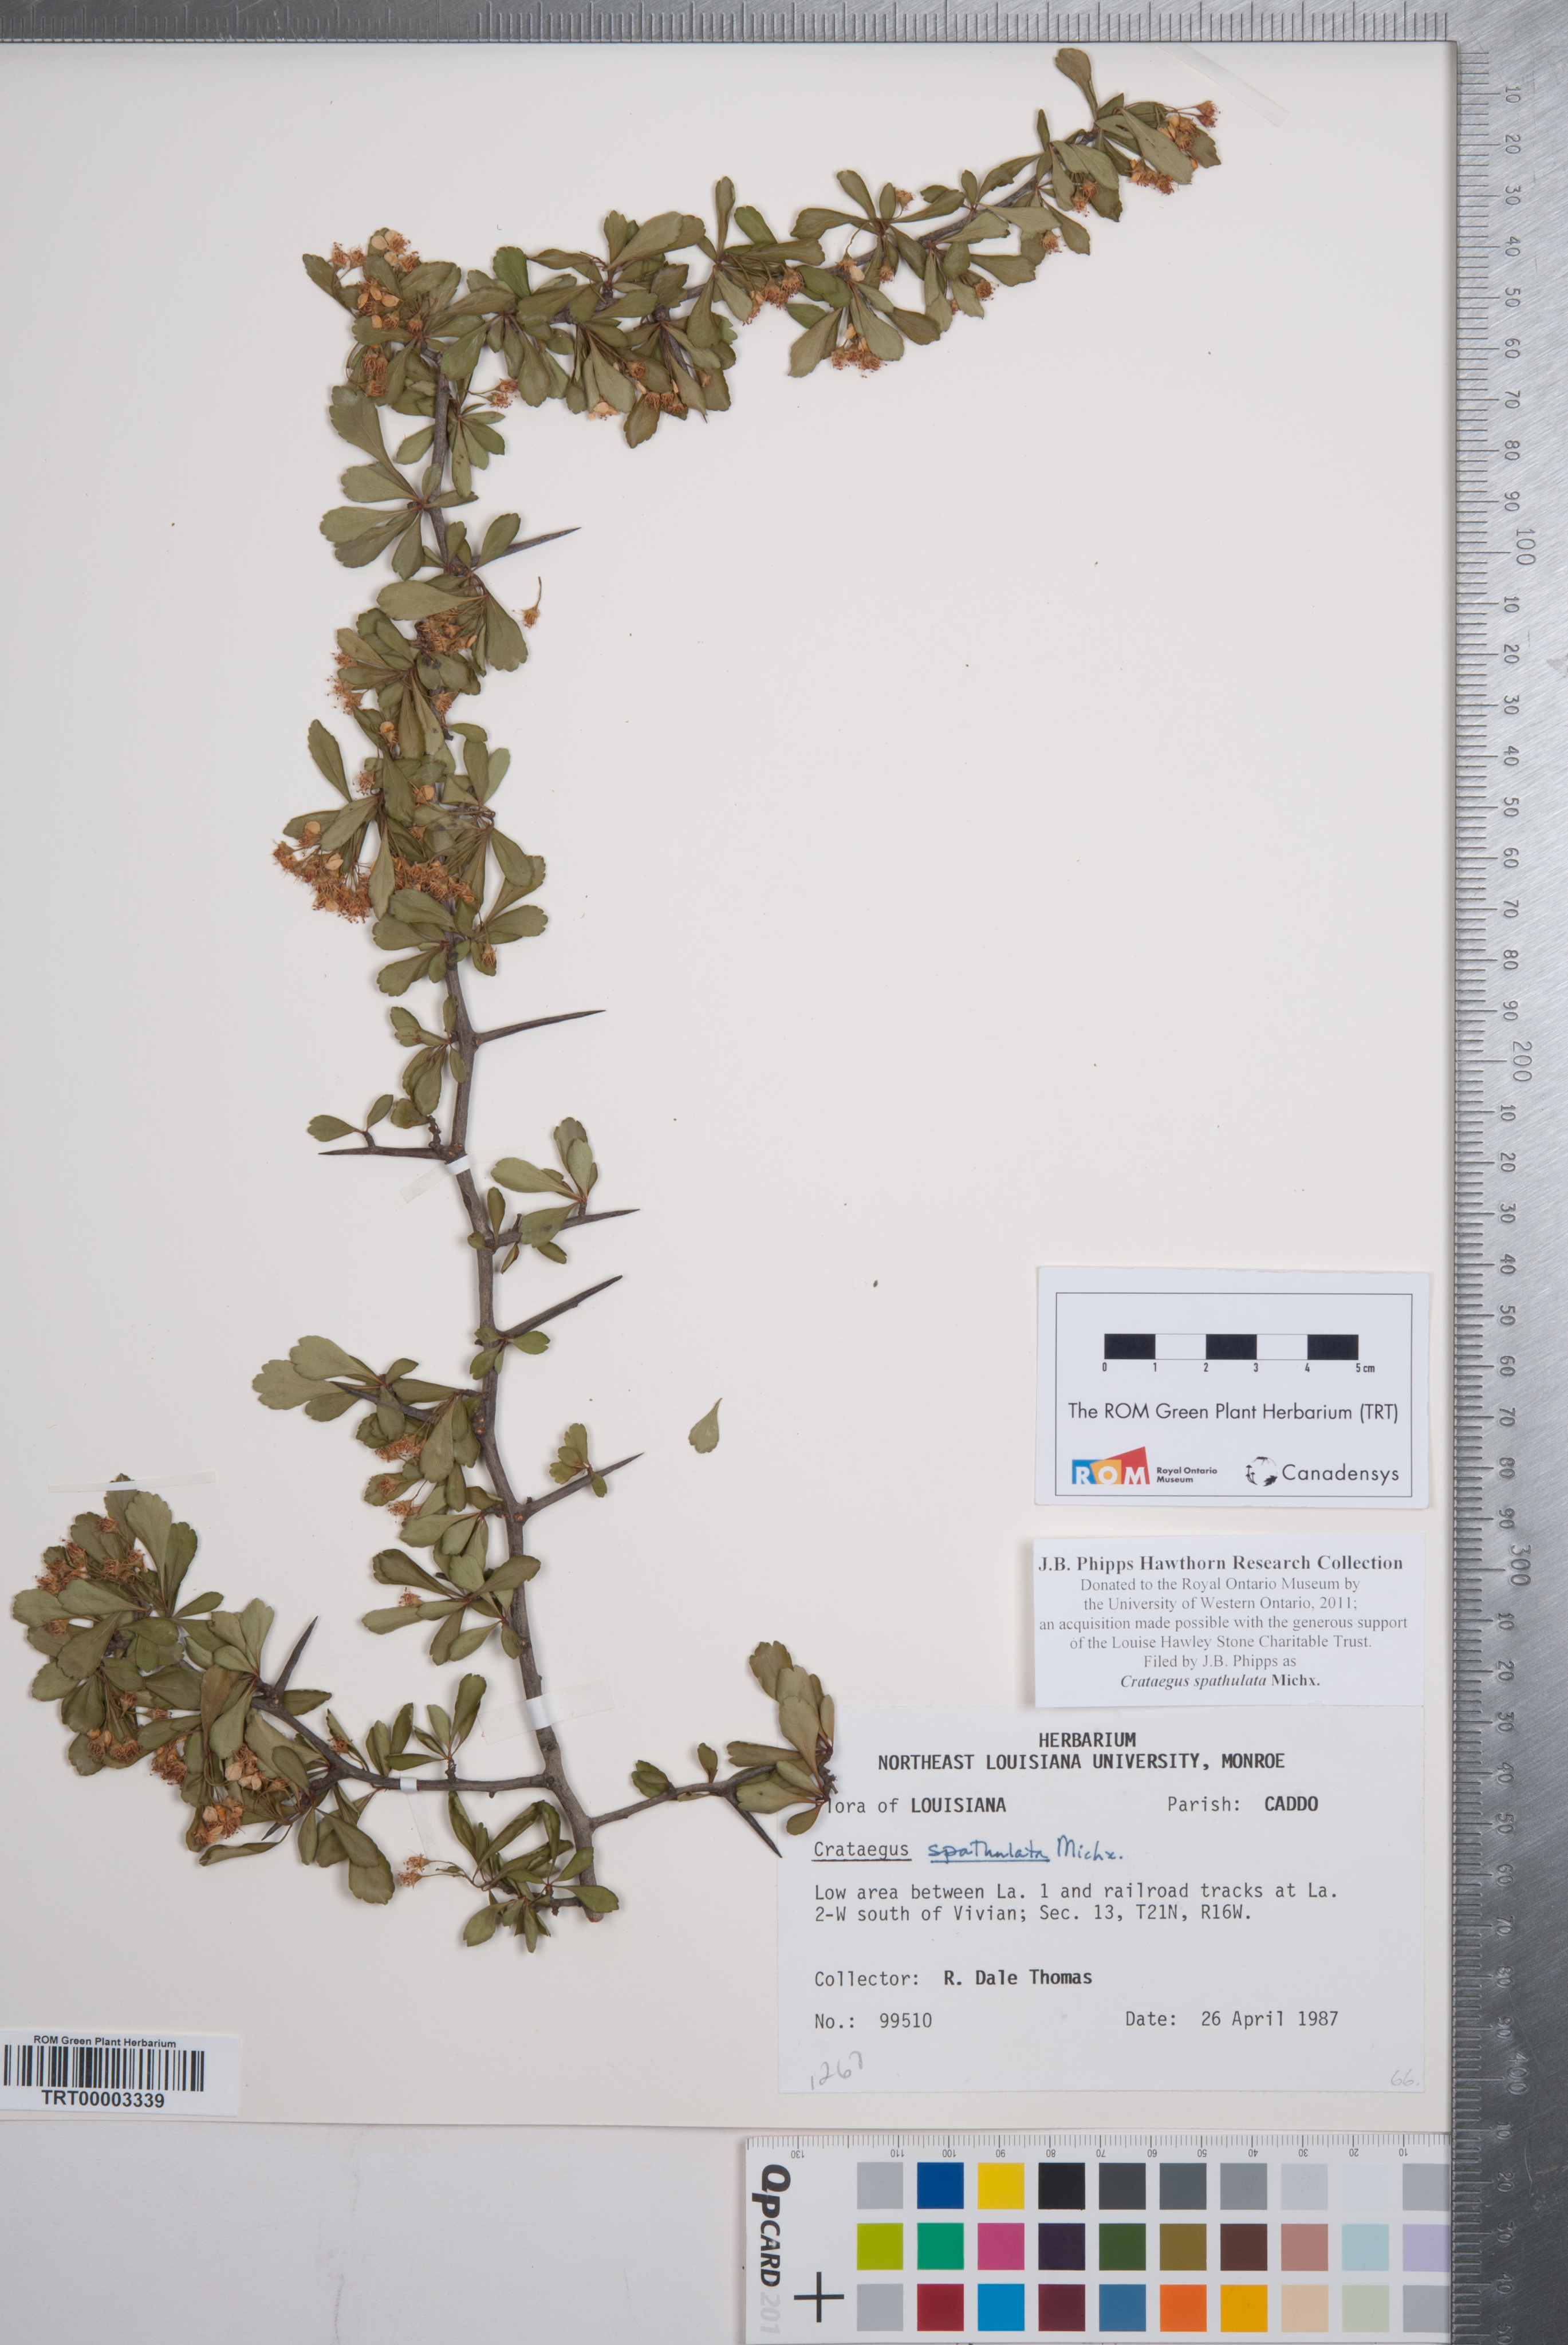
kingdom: Plantae
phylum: Tracheophyta
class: Magnoliopsida
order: Rosales
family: Rosaceae
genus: Crataegus
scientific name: Crataegus spathulata
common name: Littlehip hawthorn
